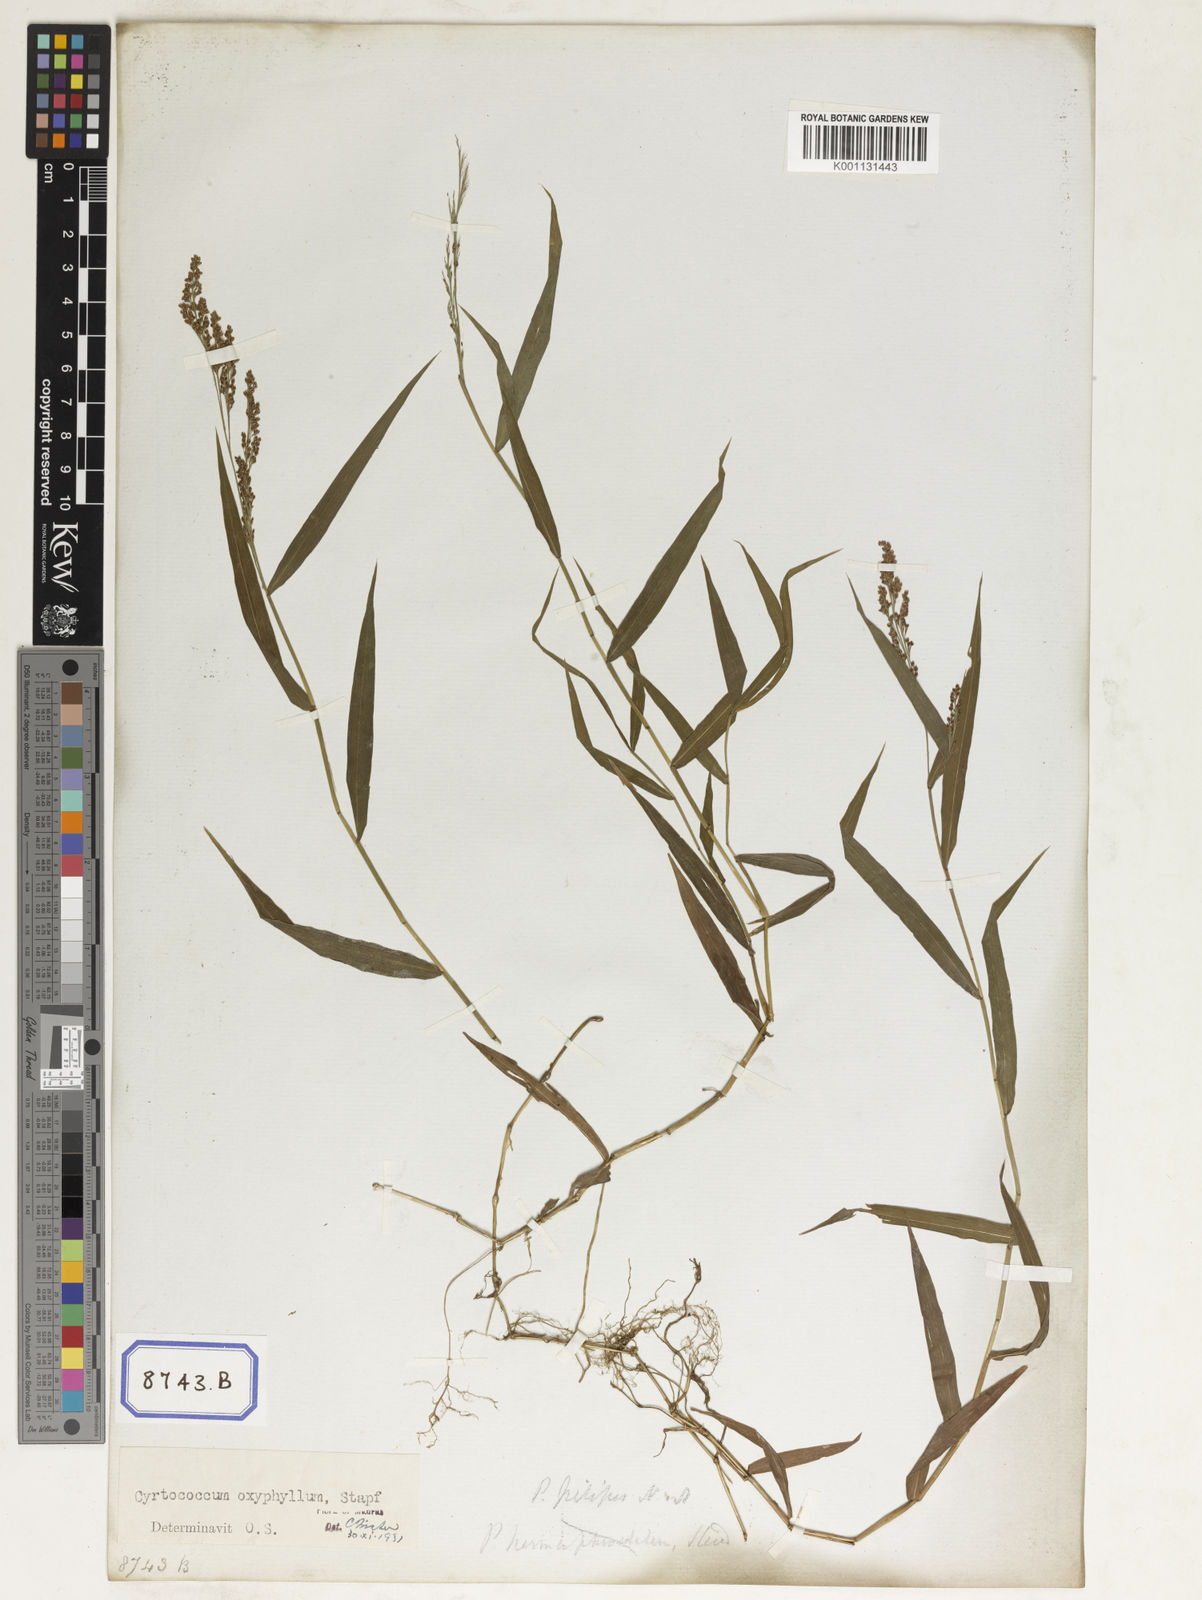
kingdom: Plantae
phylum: Tracheophyta
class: Liliopsida
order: Poales
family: Poaceae
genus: Panicum
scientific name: Panicum
